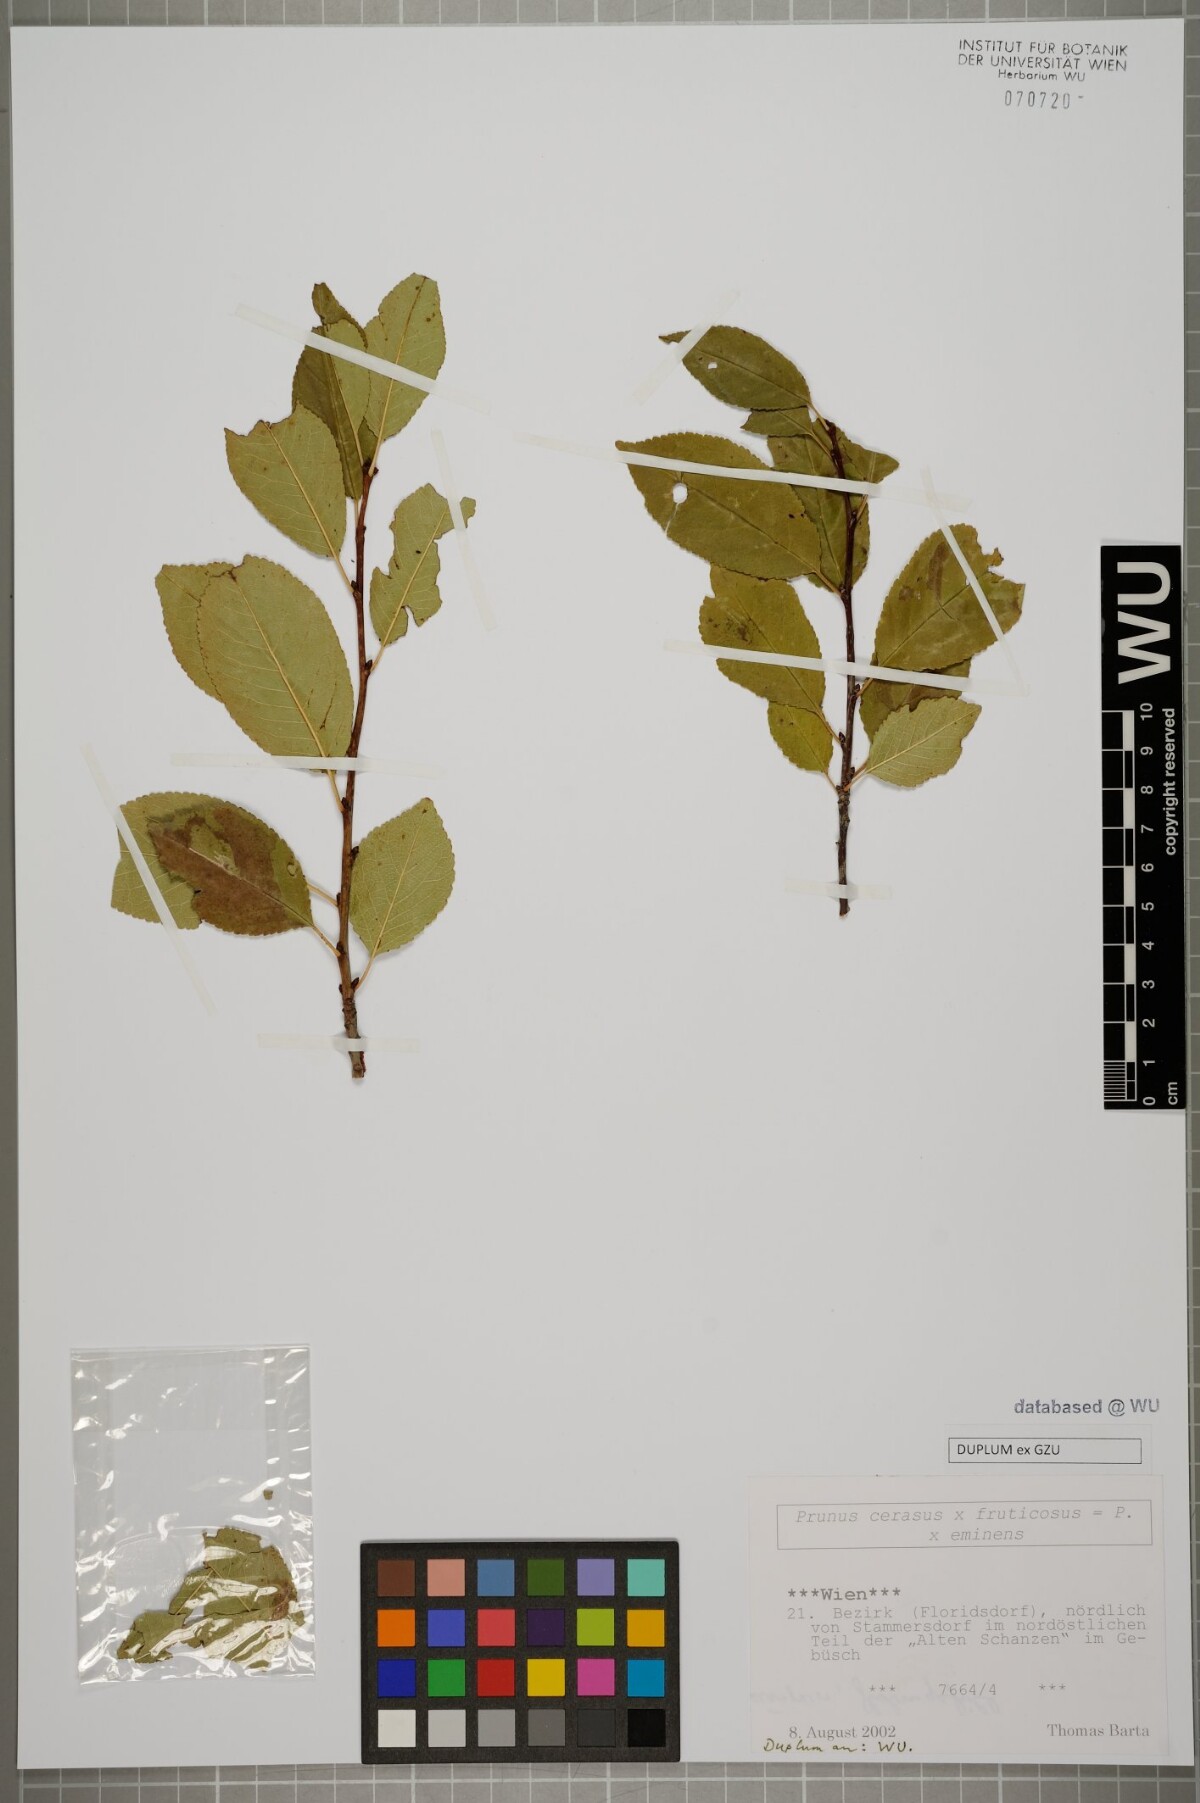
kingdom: Plantae
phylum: Tracheophyta
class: Magnoliopsida
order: Rosales
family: Rosaceae
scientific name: Rosaceae
